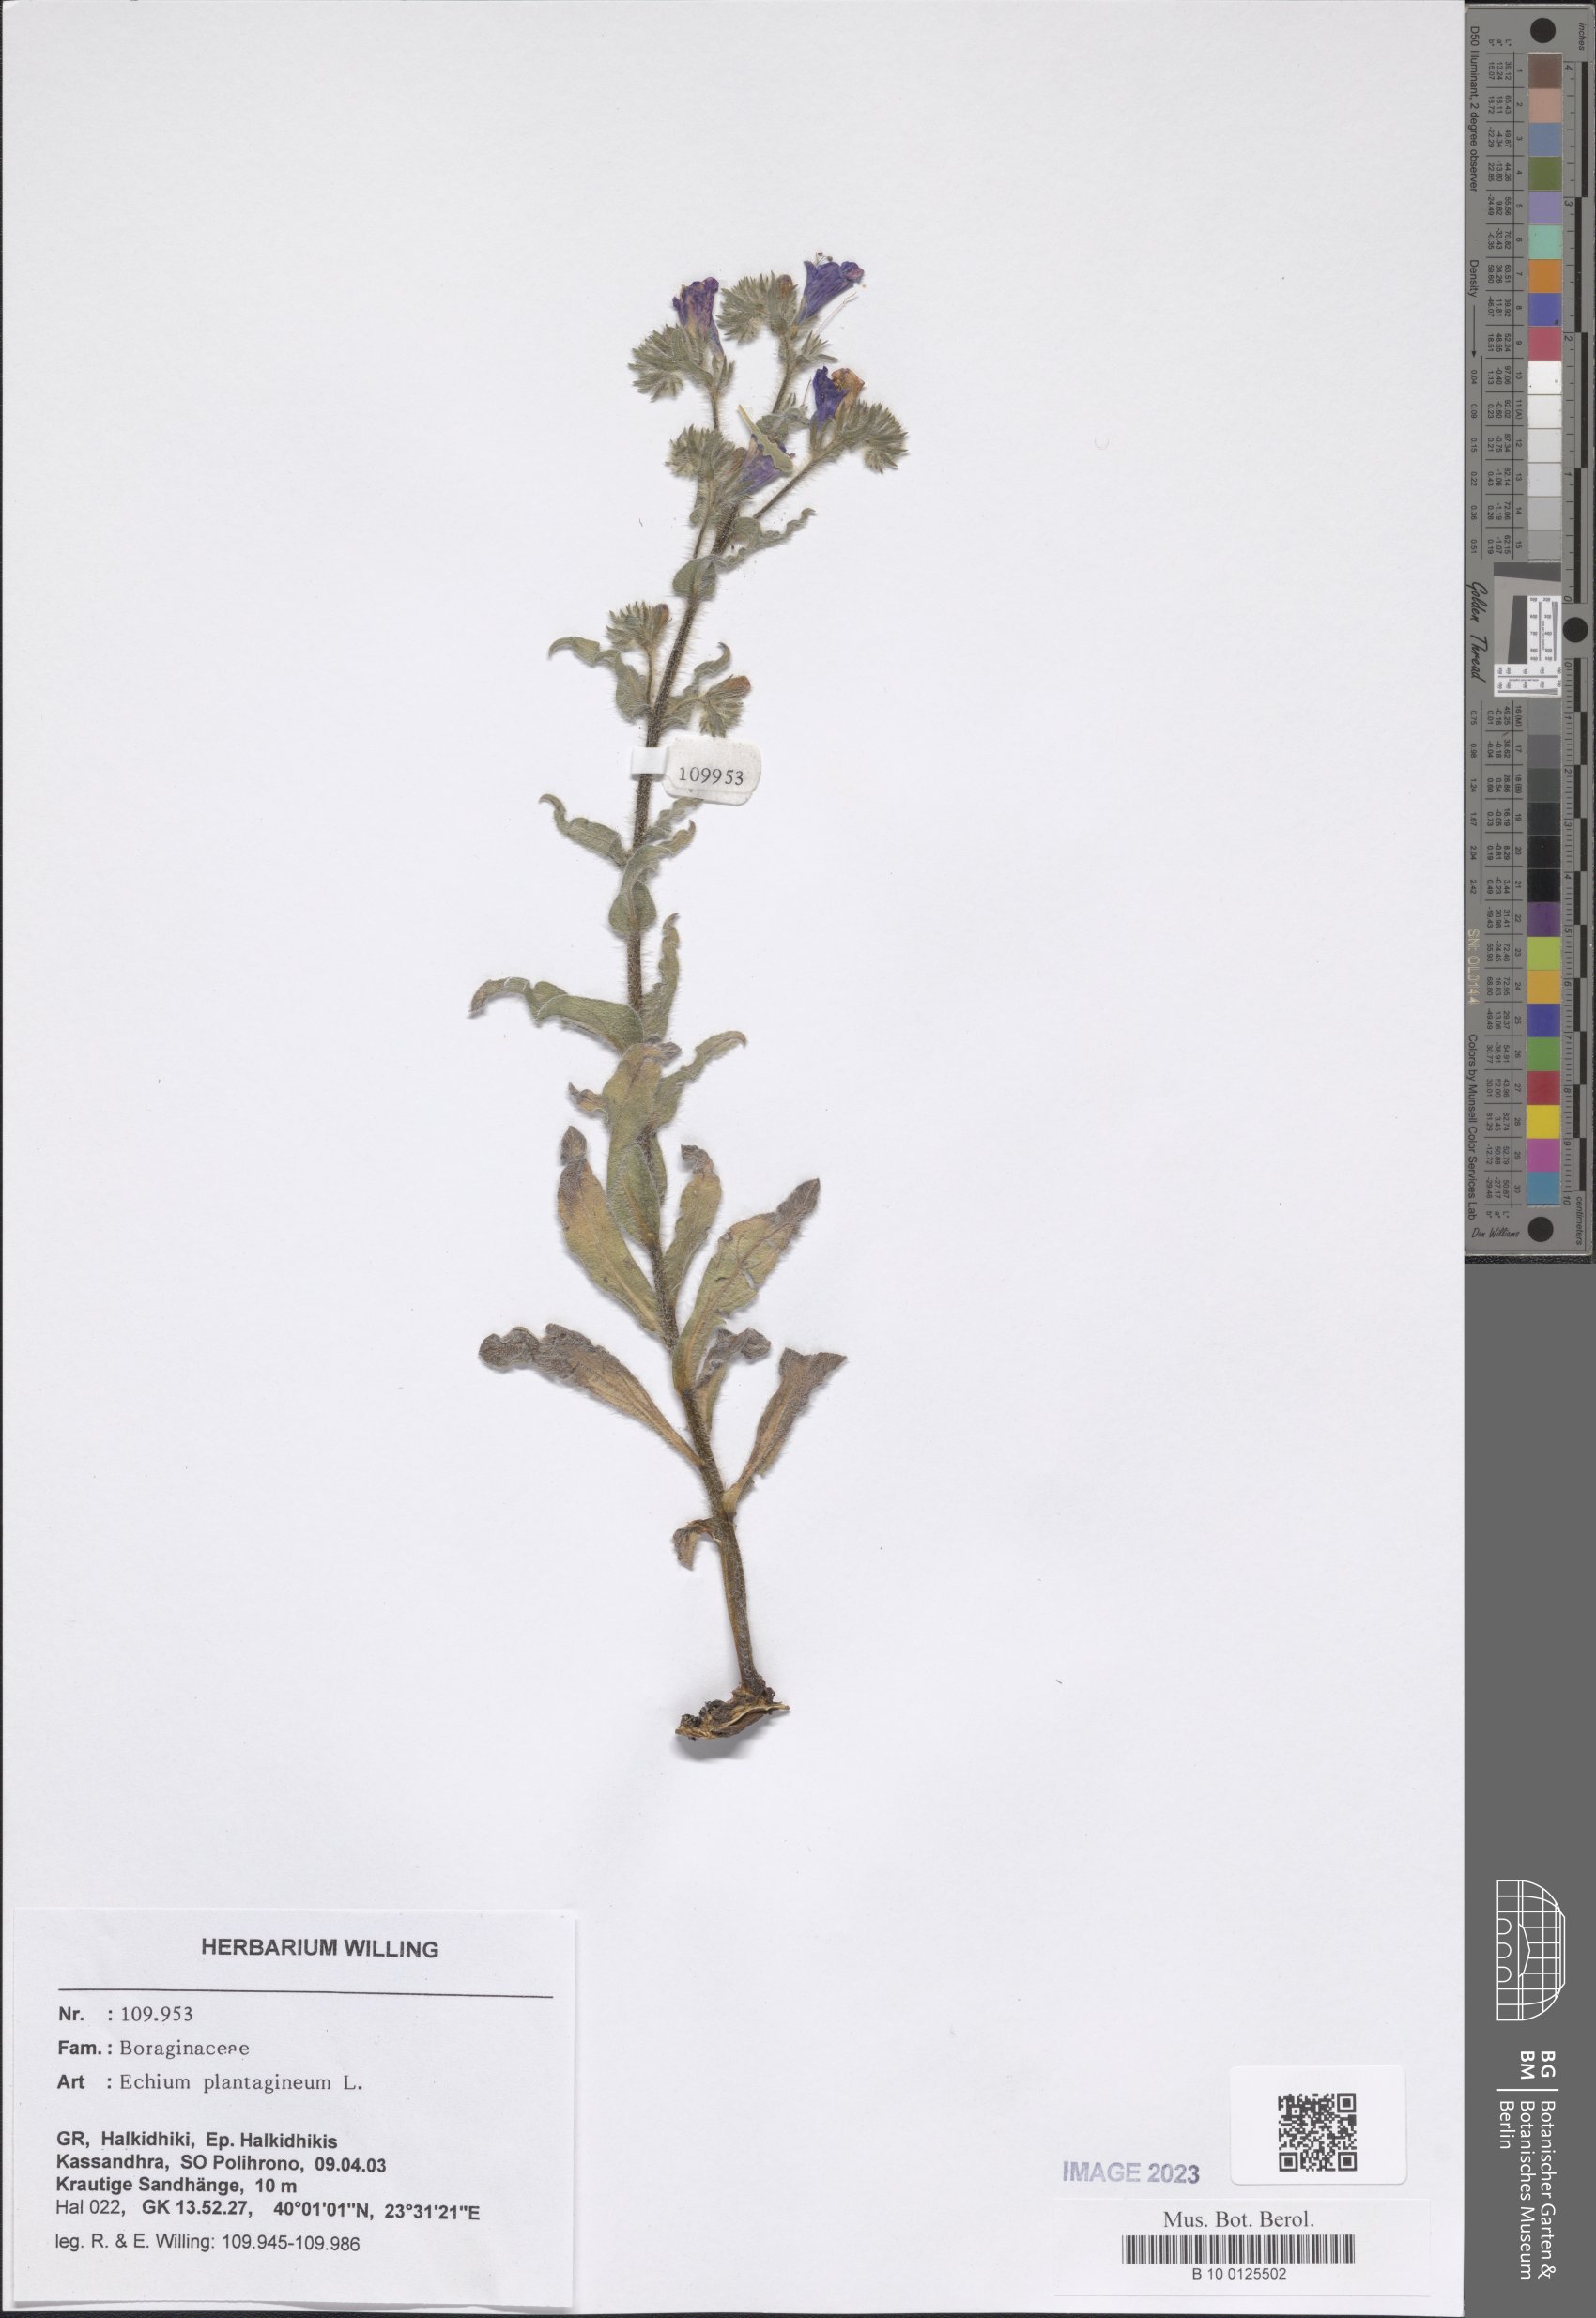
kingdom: Plantae
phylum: Tracheophyta
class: Magnoliopsida
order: Boraginales
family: Boraginaceae
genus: Echium
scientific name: Echium plantagineum
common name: Purple viper's-bugloss
